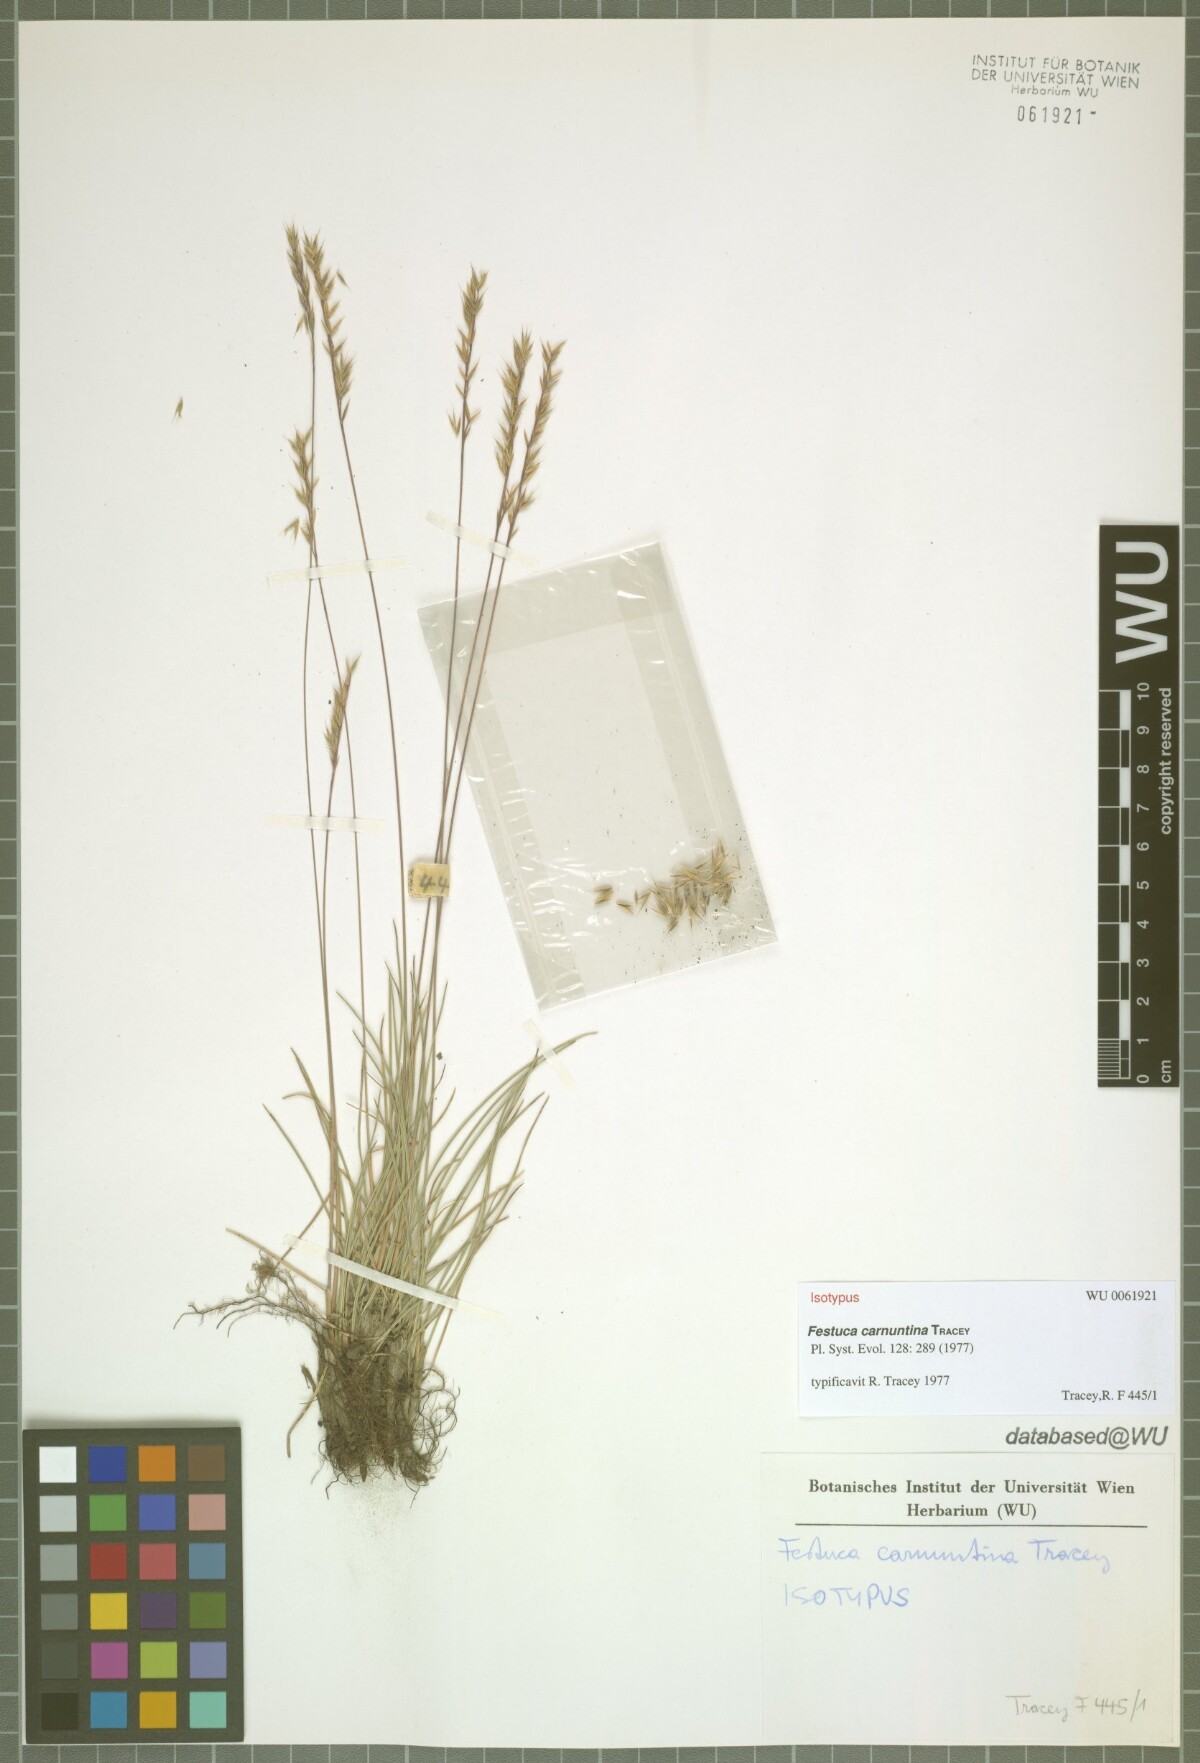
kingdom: Plantae
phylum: Tracheophyta
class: Liliopsida
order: Poales
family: Poaceae
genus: Festuca
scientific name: Festuca carnuntina
